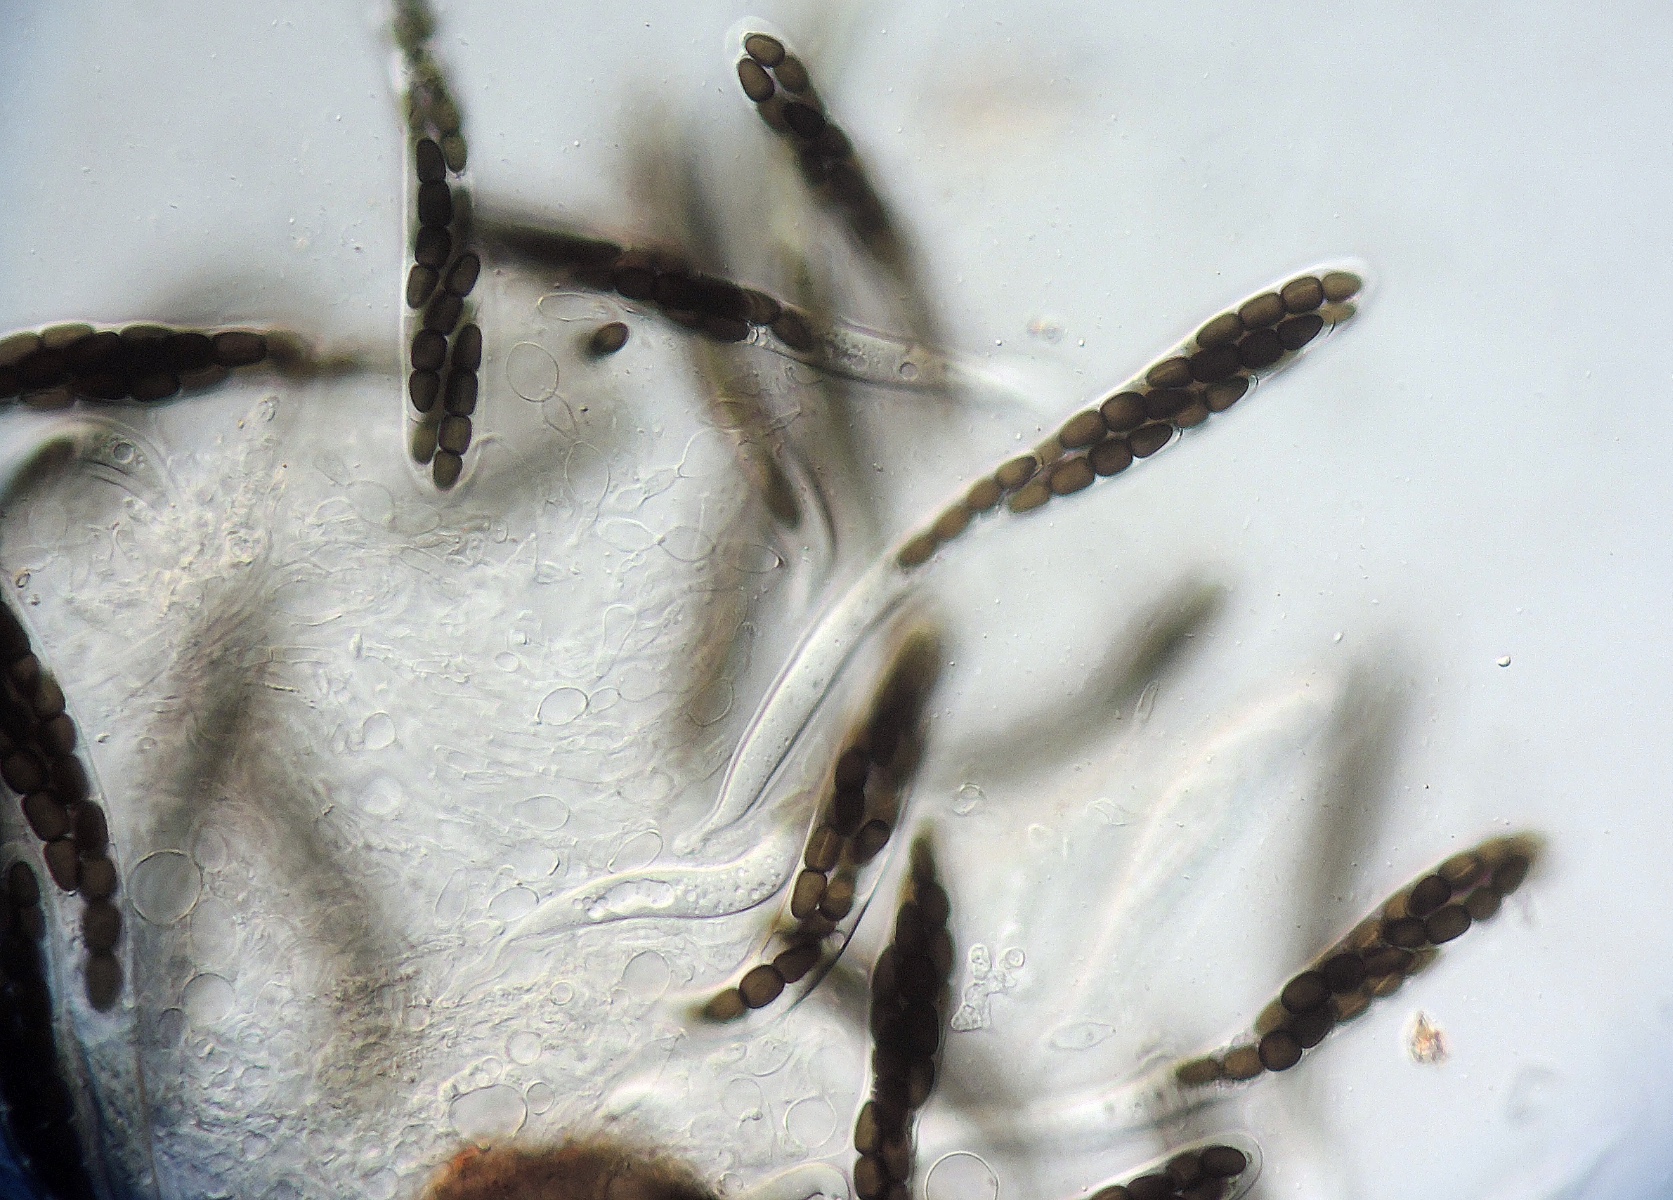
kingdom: Fungi
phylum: Ascomycota
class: Dothideomycetes
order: Pleosporales
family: Sporormiaceae
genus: Sporormiella
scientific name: Sporormiella leporina
